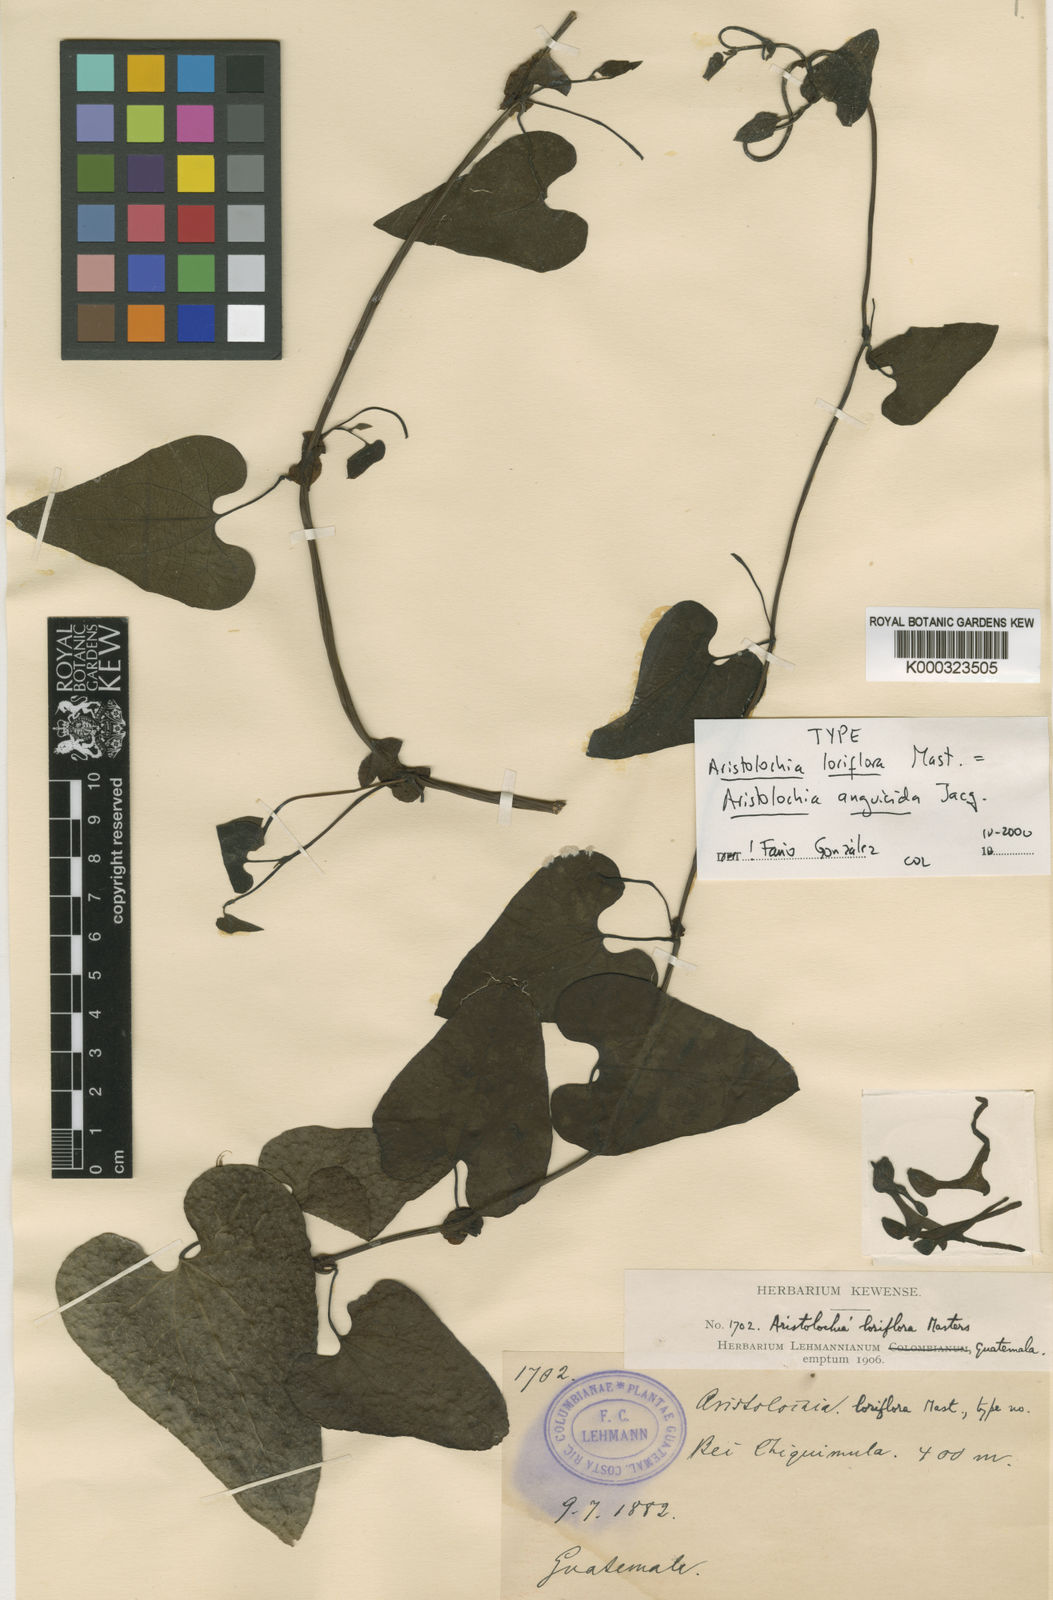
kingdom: Plantae
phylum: Tracheophyta
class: Magnoliopsida
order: Piperales
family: Aristolochiaceae
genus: Aristolochia
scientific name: Aristolochia anguicida
